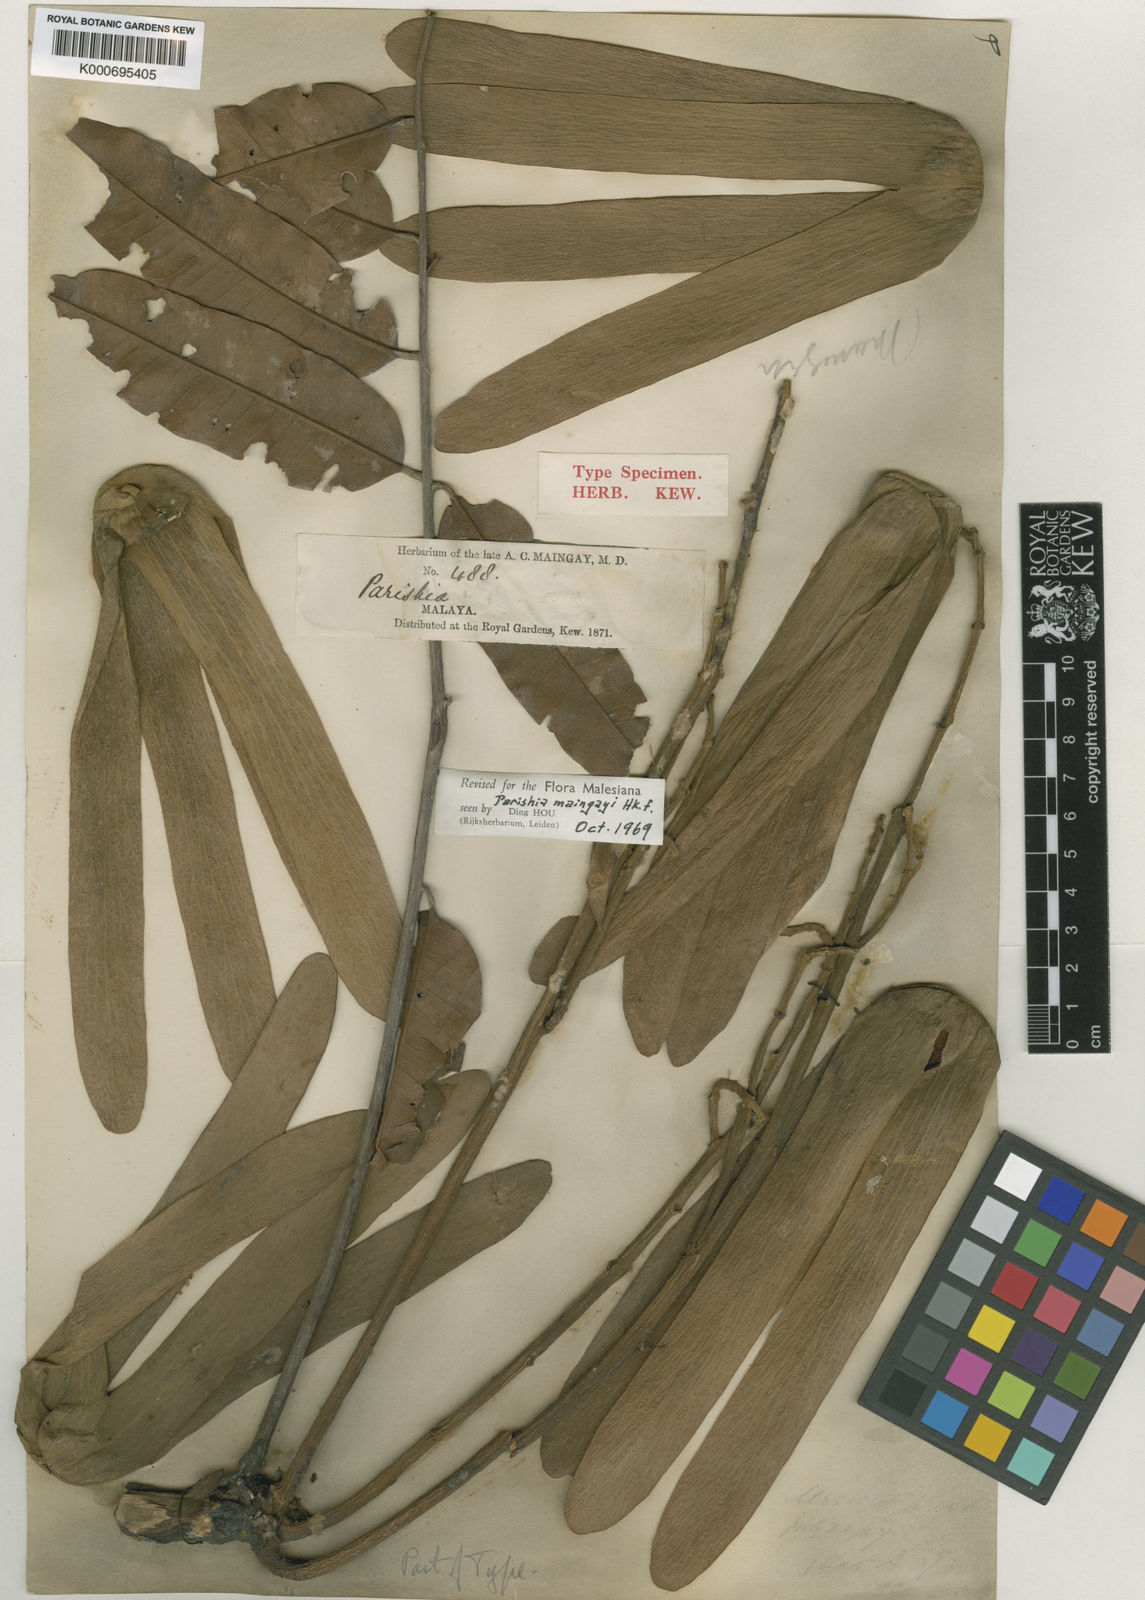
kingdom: Plantae
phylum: Tracheophyta
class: Magnoliopsida
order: Sapindales
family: Anacardiaceae
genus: Parishia
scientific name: Parishia maingayi
